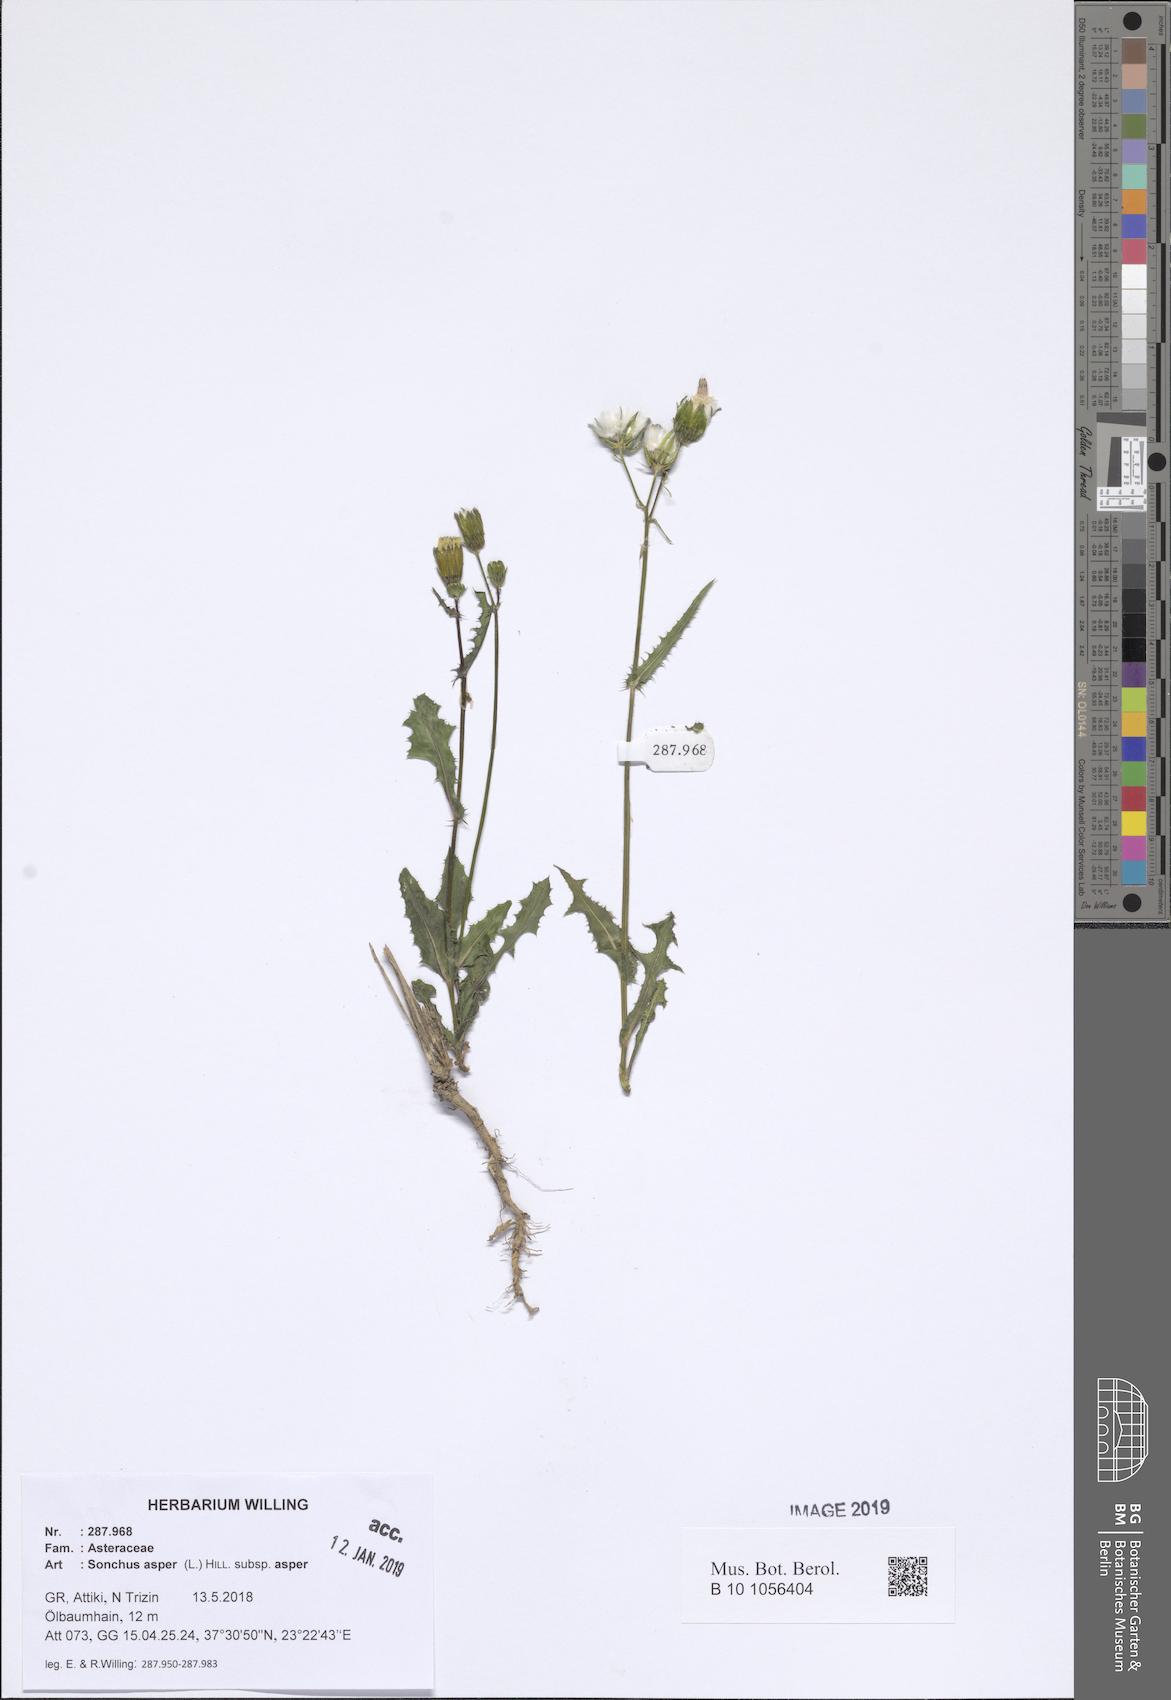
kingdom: Plantae
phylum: Tracheophyta
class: Magnoliopsida
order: Asterales
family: Asteraceae
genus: Sonchus
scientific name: Sonchus asper
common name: Prickly sow-thistle
